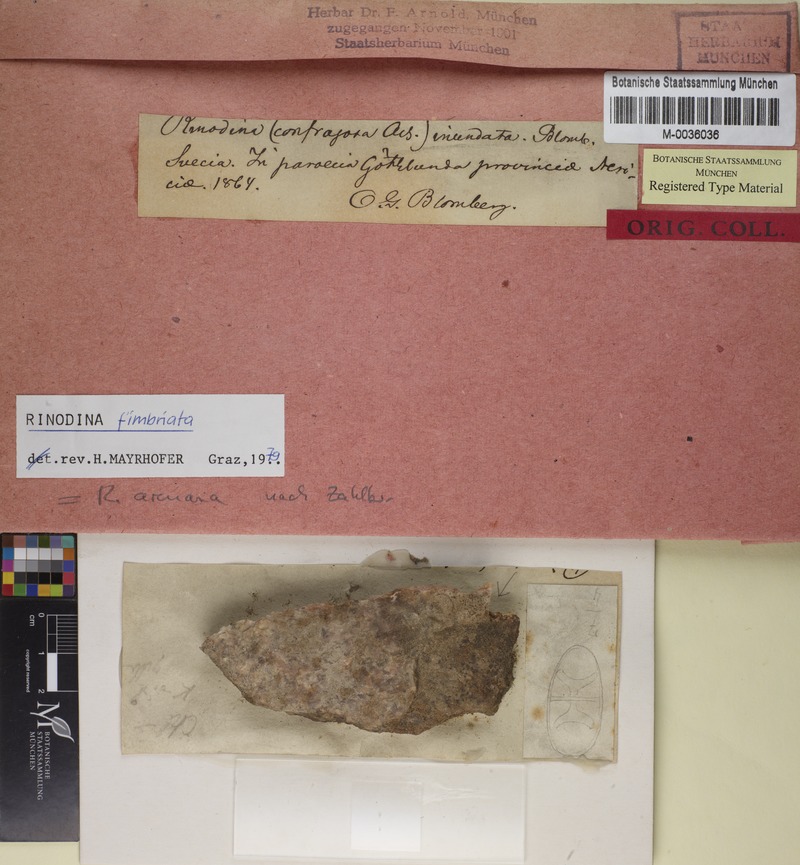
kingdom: Fungi
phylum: Ascomycota
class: Lecanoromycetes
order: Caliciales
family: Physciaceae
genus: Rinodina
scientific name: Rinodina fimbriata
